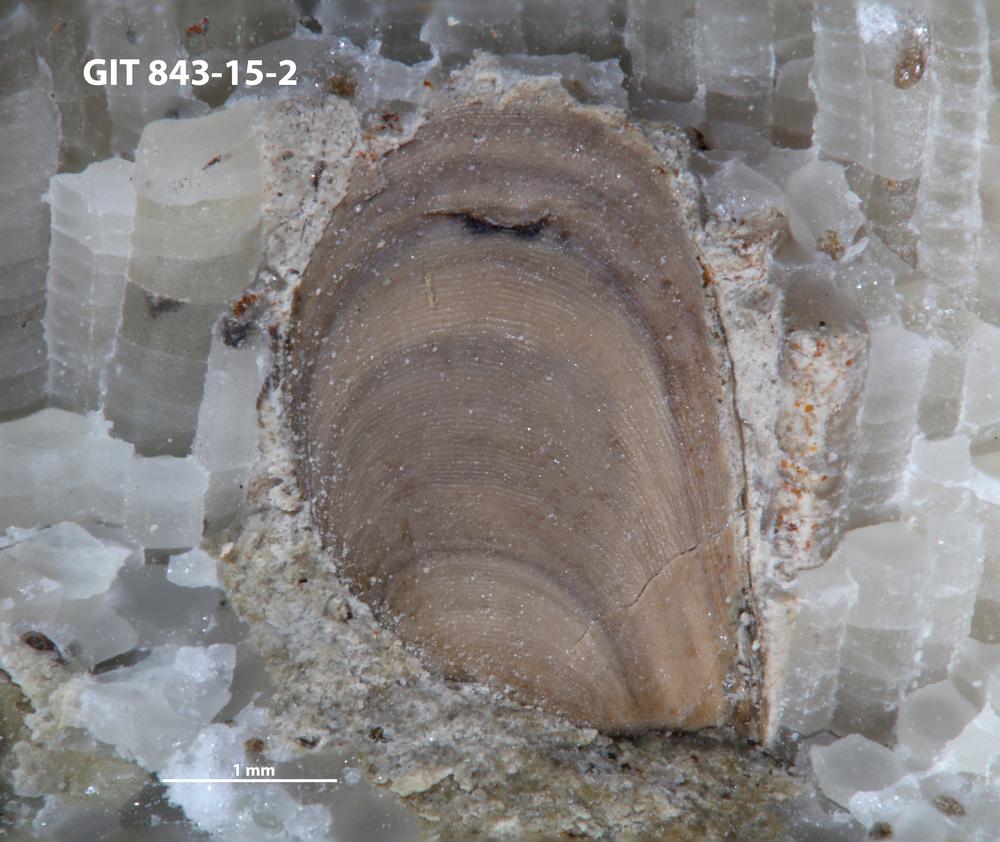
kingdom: Animalia
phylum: Brachiopoda
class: Lingulata
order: Lingulida
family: Zhanatellidae
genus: Rowellella
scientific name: Rowellella
